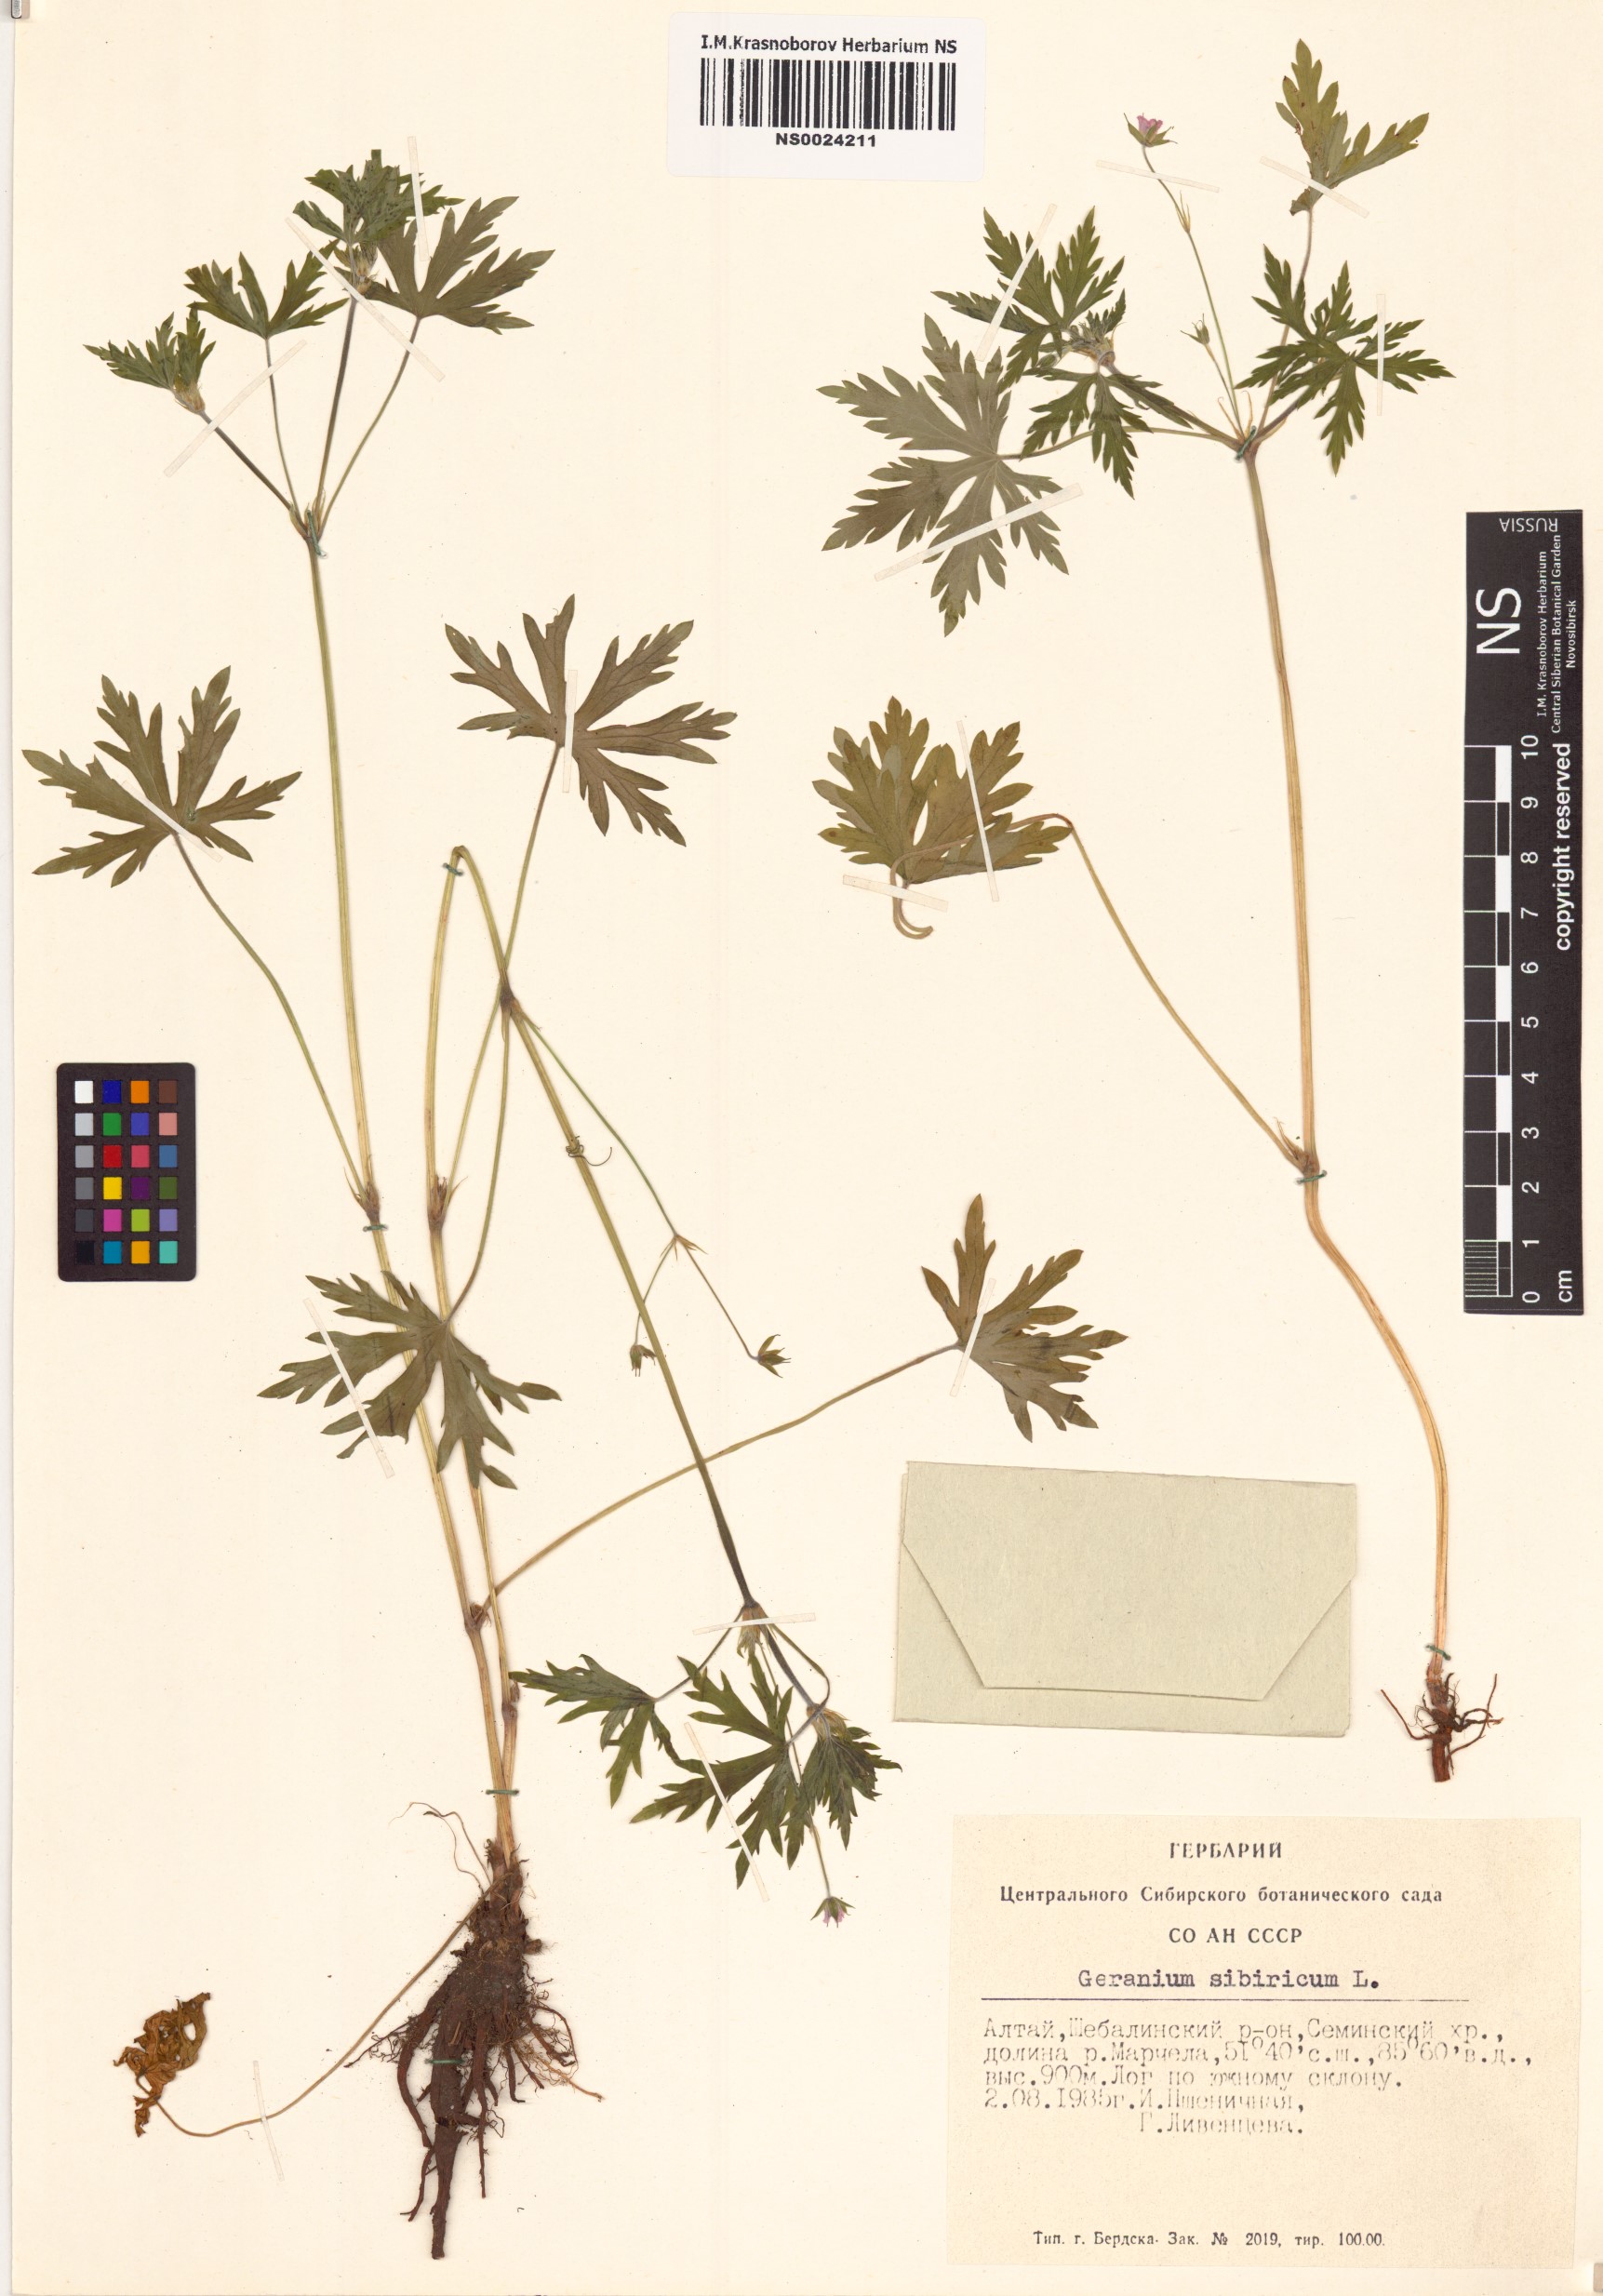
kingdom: Plantae
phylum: Tracheophyta
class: Magnoliopsida
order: Geraniales
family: Geraniaceae
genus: Geranium
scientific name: Geranium sibiricum
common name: Siberian crane's-bill
